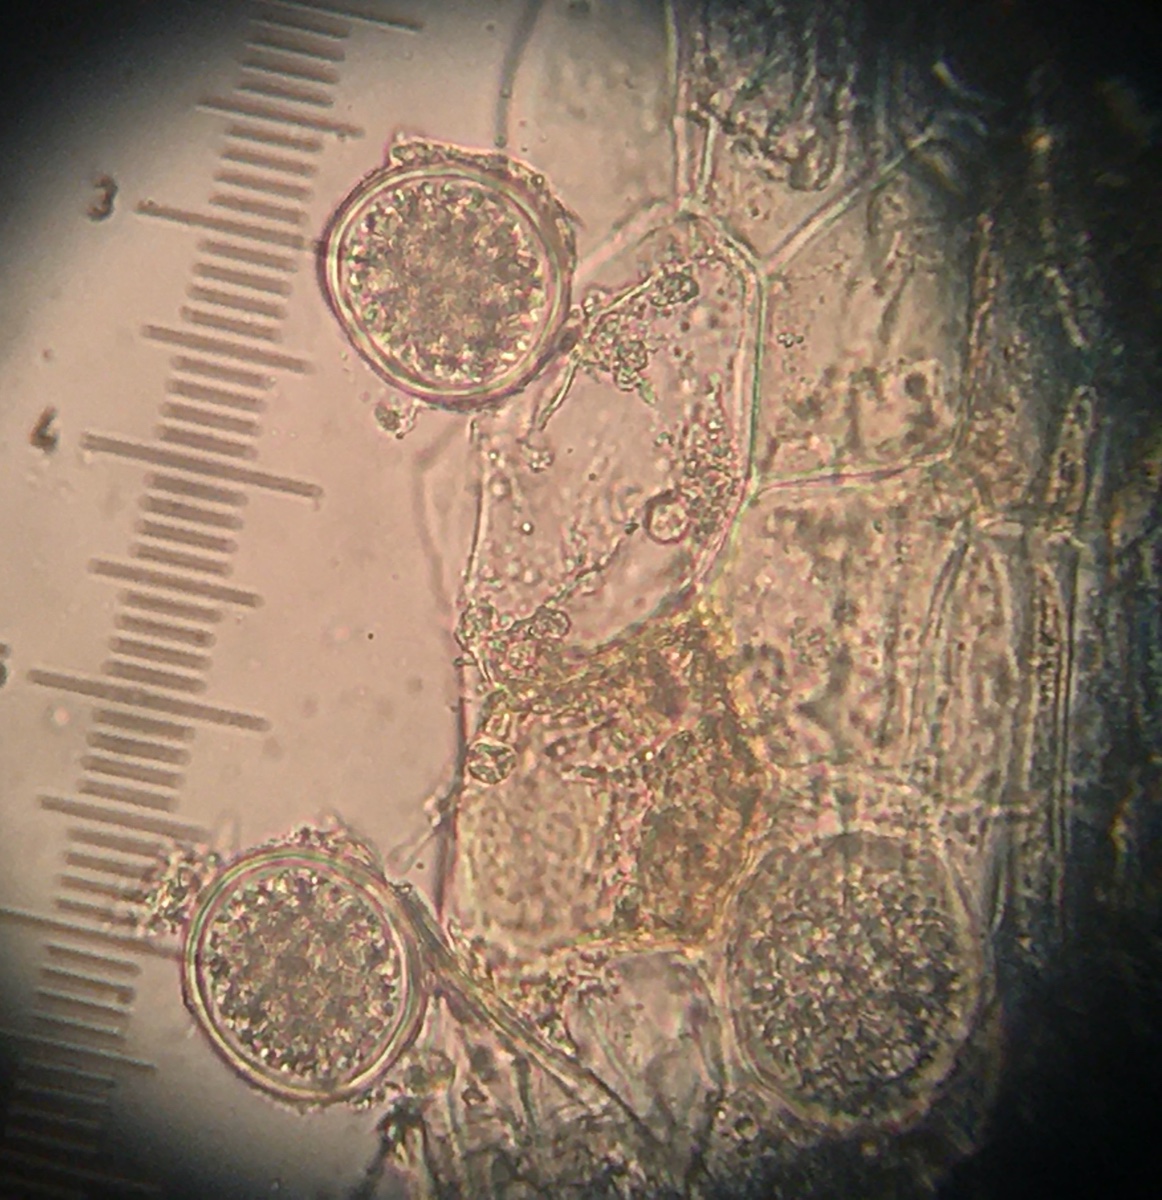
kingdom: Fungi
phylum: Ascomycota
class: Taphrinomycetes
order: Taphrinales
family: Taphrinaceae
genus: Protomyces
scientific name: Protomyces macrosporus
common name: skvalderkål-vablesæk
